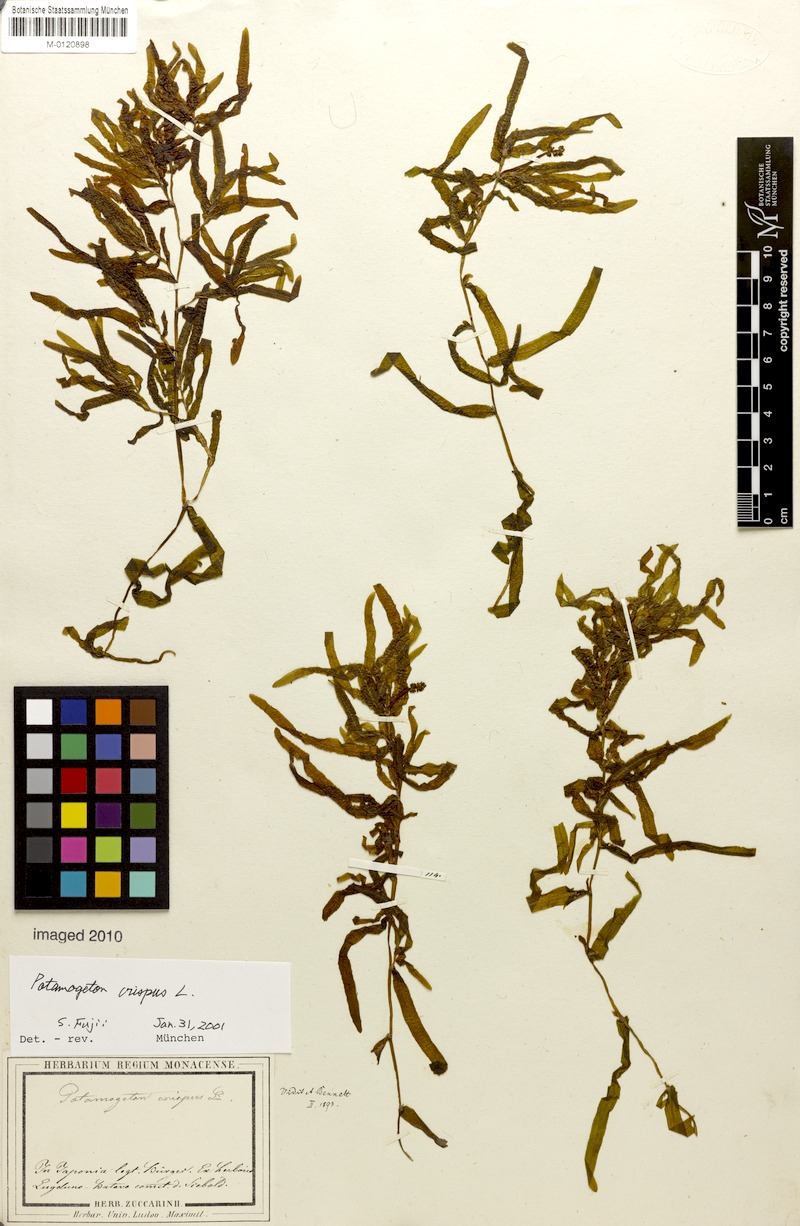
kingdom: Plantae
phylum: Tracheophyta
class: Liliopsida
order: Alismatales
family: Potamogetonaceae
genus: Potamogeton
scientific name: Potamogeton crispus
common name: Curled pondweed
